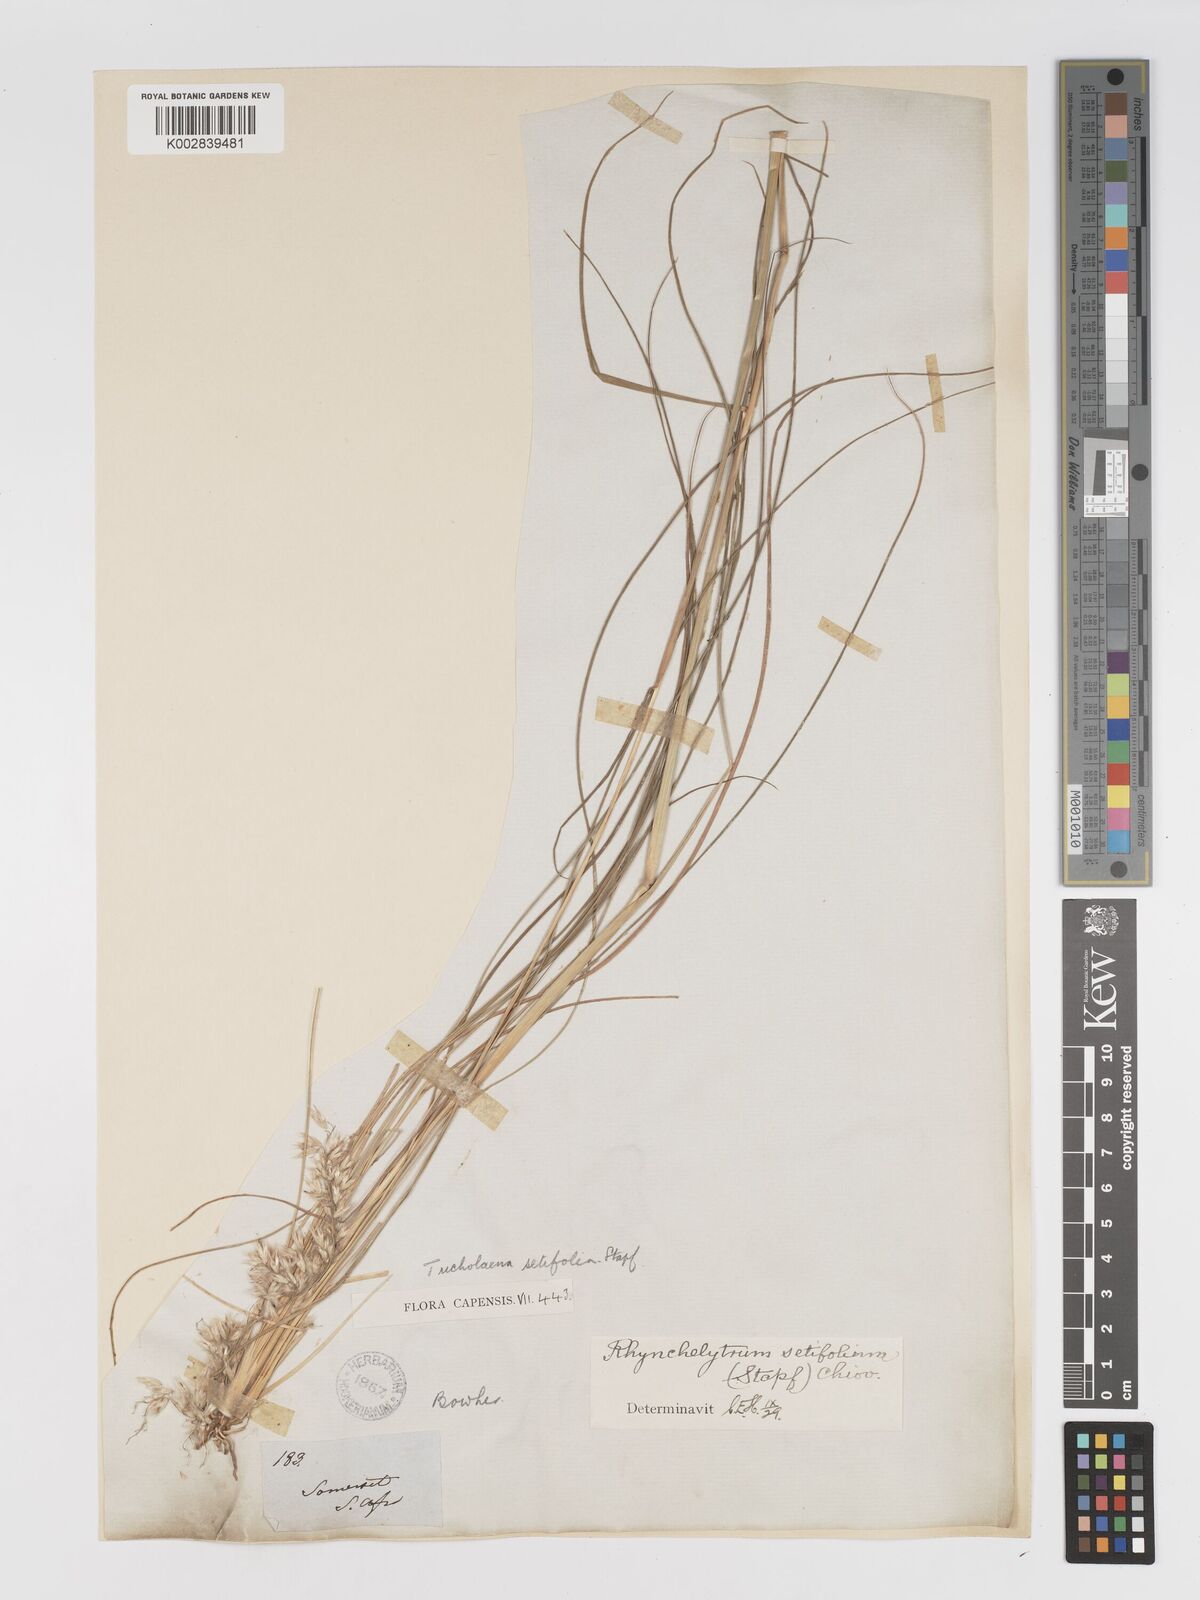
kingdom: Plantae
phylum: Tracheophyta
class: Liliopsida
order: Poales
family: Poaceae
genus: Melinis
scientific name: Melinis nerviglumis
